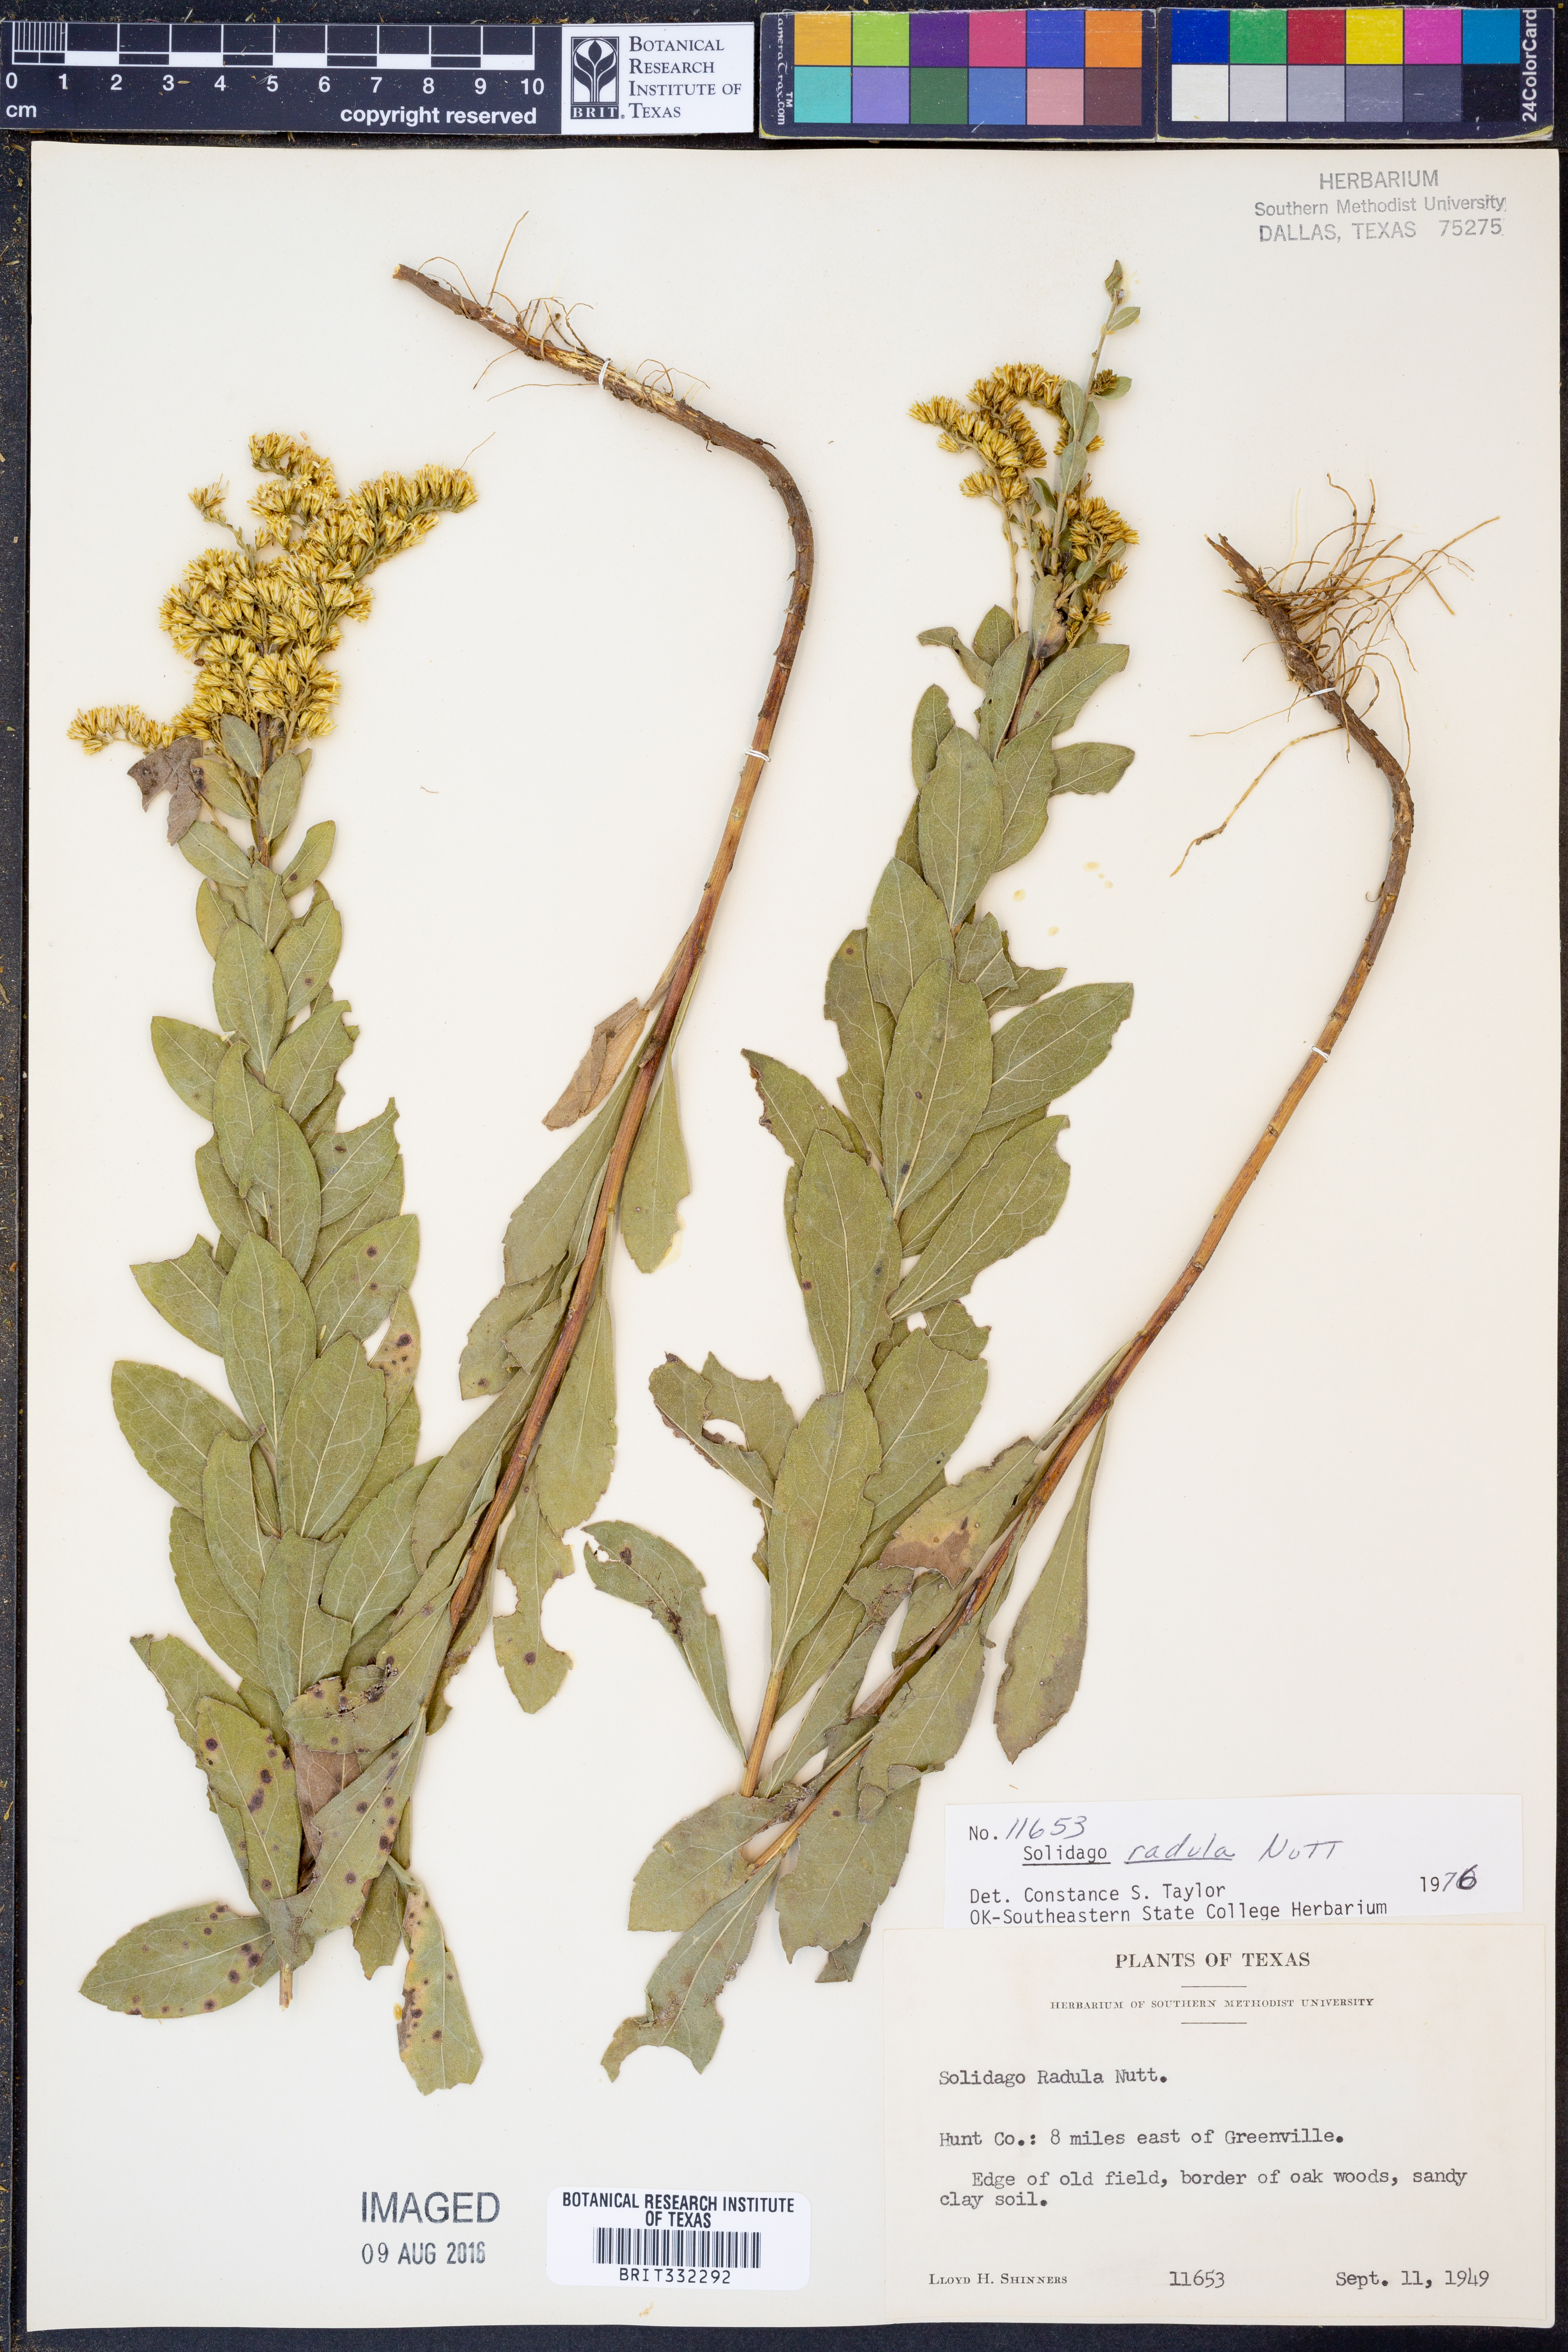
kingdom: Plantae
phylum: Tracheophyta
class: Magnoliopsida
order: Asterales
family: Asteraceae
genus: Solidago
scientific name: Solidago radula
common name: Western rough goldenrod
